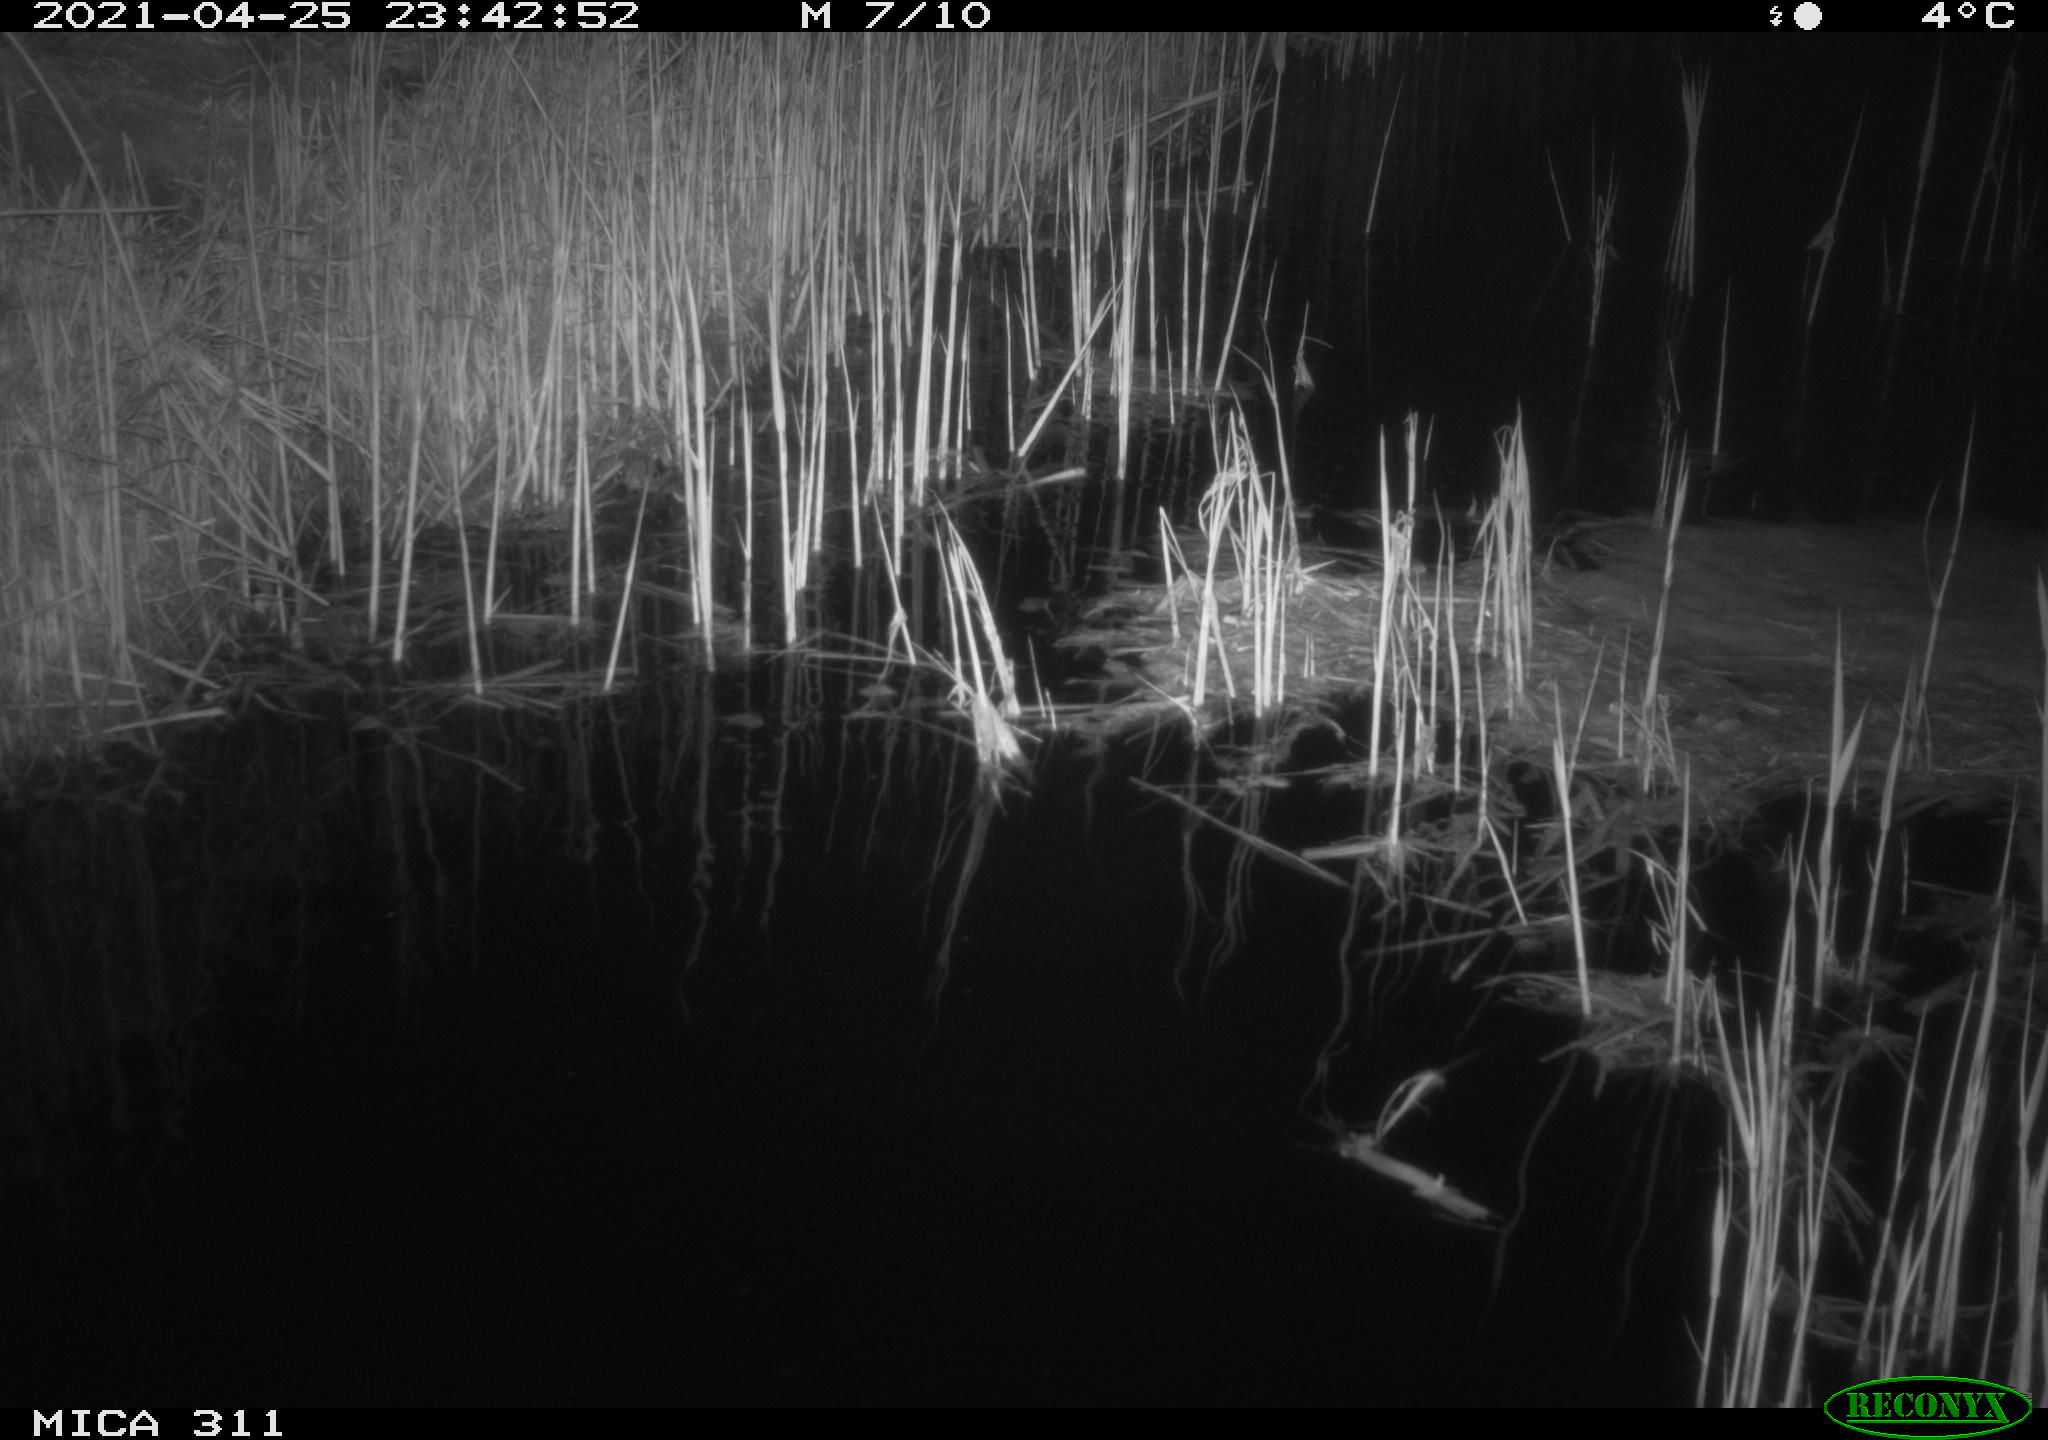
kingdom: Animalia
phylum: Chordata
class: Mammalia
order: Rodentia
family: Cricetidae
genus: Ondatra
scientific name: Ondatra zibethicus
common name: Muskrat
